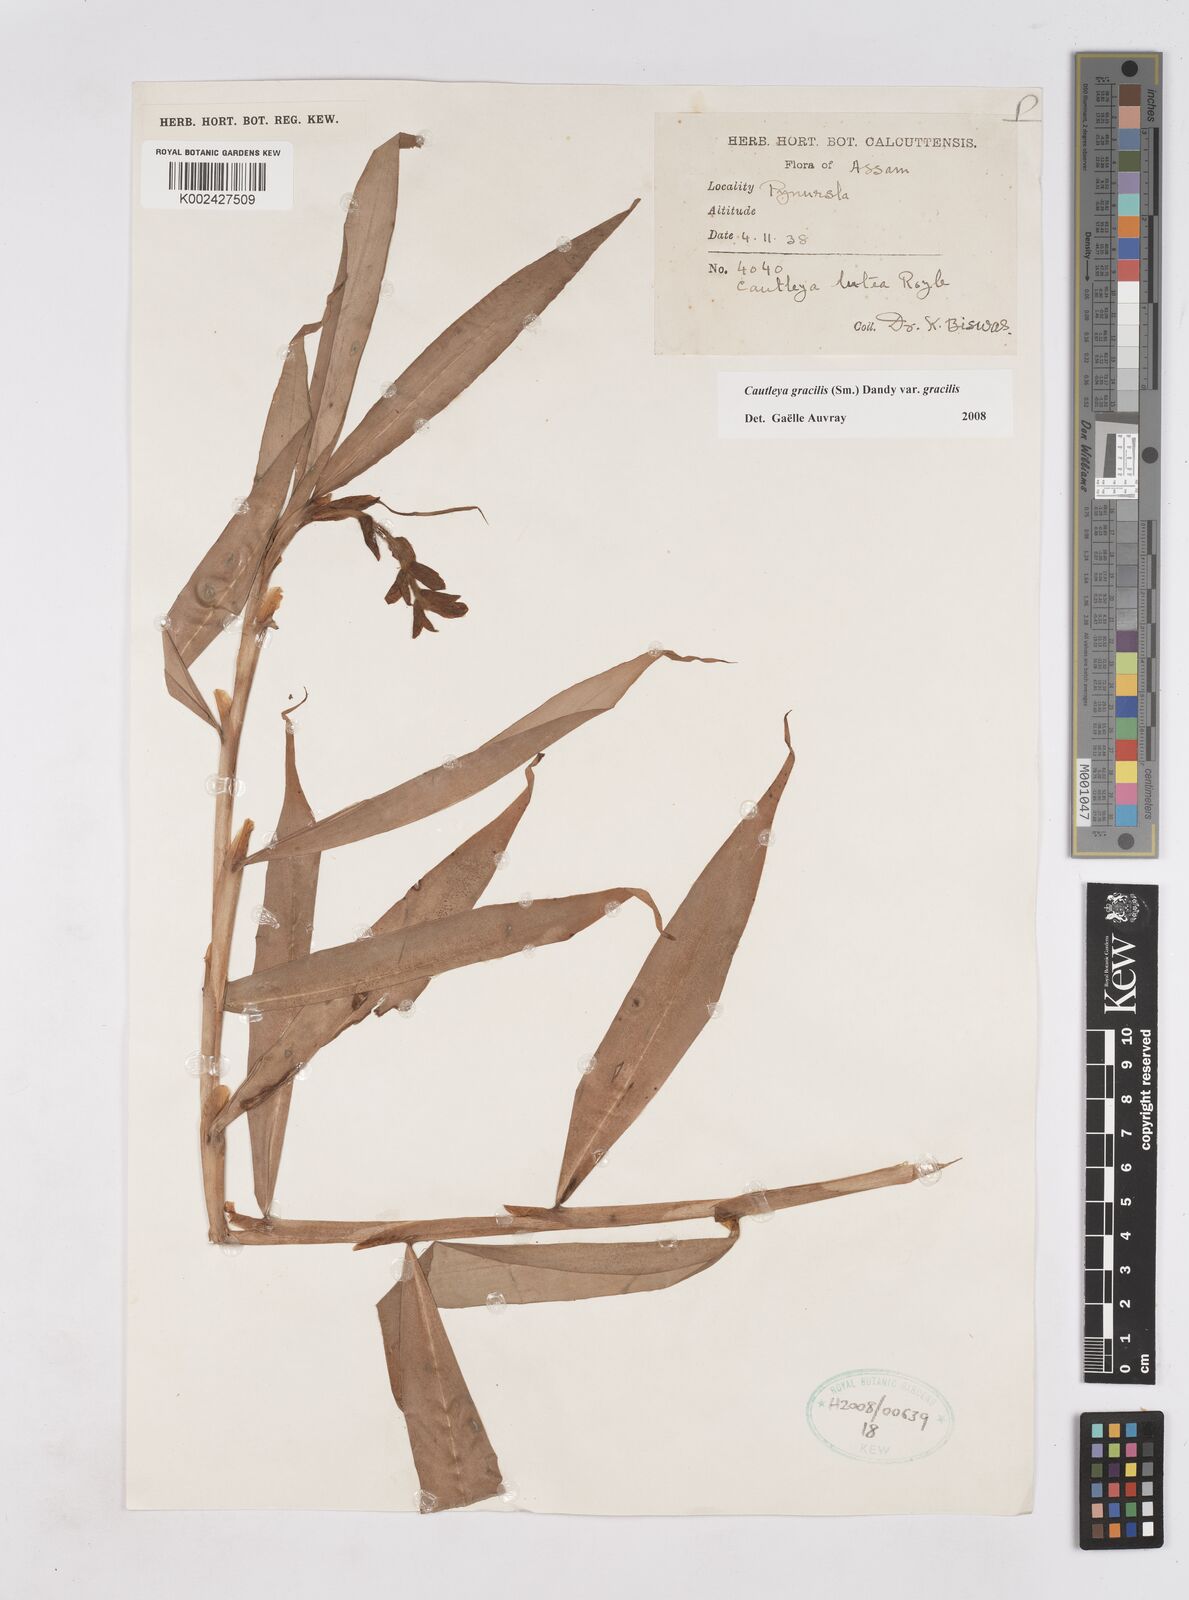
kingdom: Plantae
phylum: Tracheophyta
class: Liliopsida
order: Zingiberales
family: Zingiberaceae
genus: Cautleya
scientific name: Cautleya gracilis
